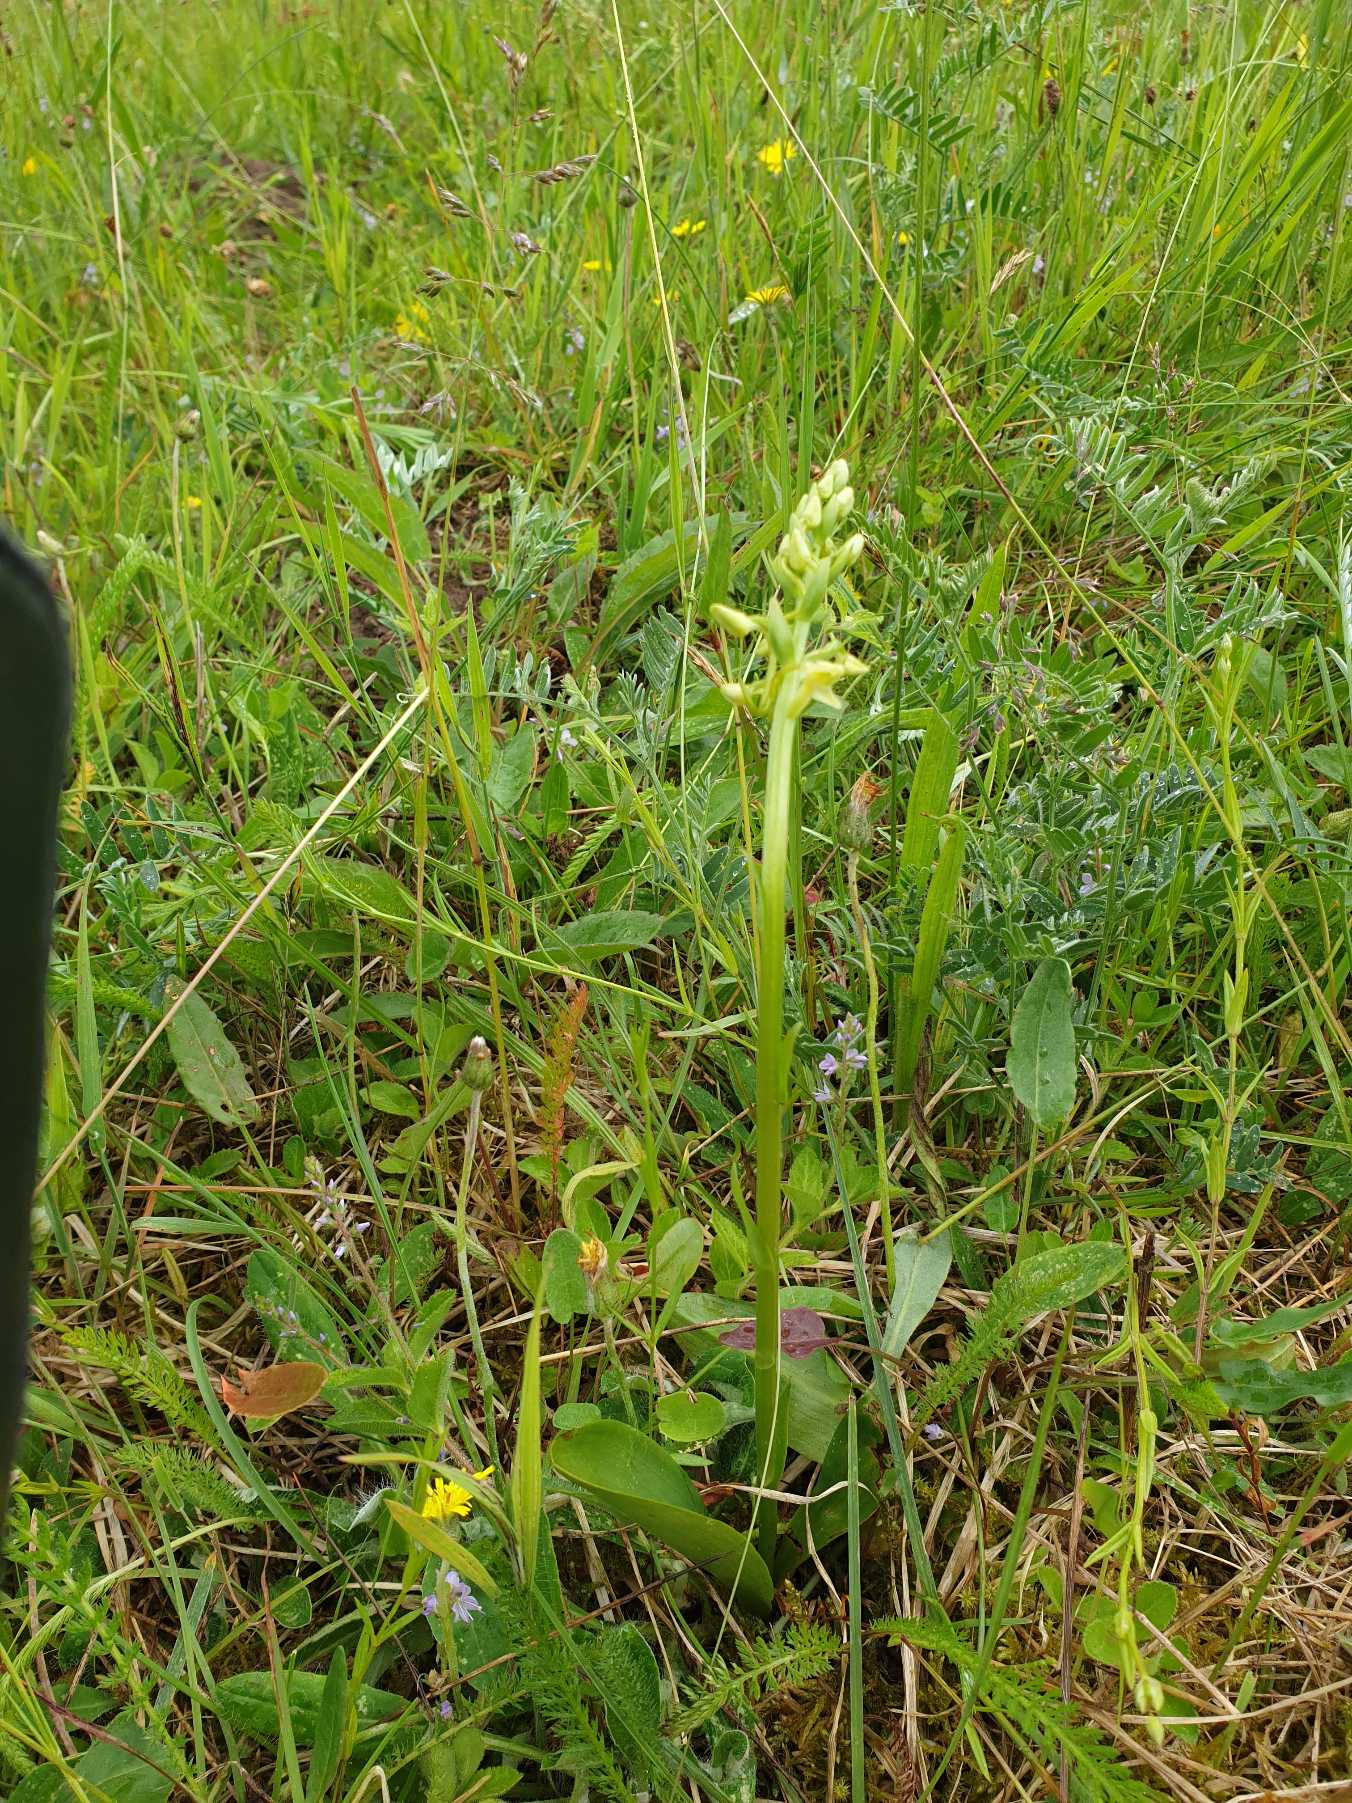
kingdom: Plantae
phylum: Tracheophyta
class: Liliopsida
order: Asparagales
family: Orchidaceae
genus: Platanthera
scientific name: Platanthera bifolia
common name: Bakke-gøgelilje
